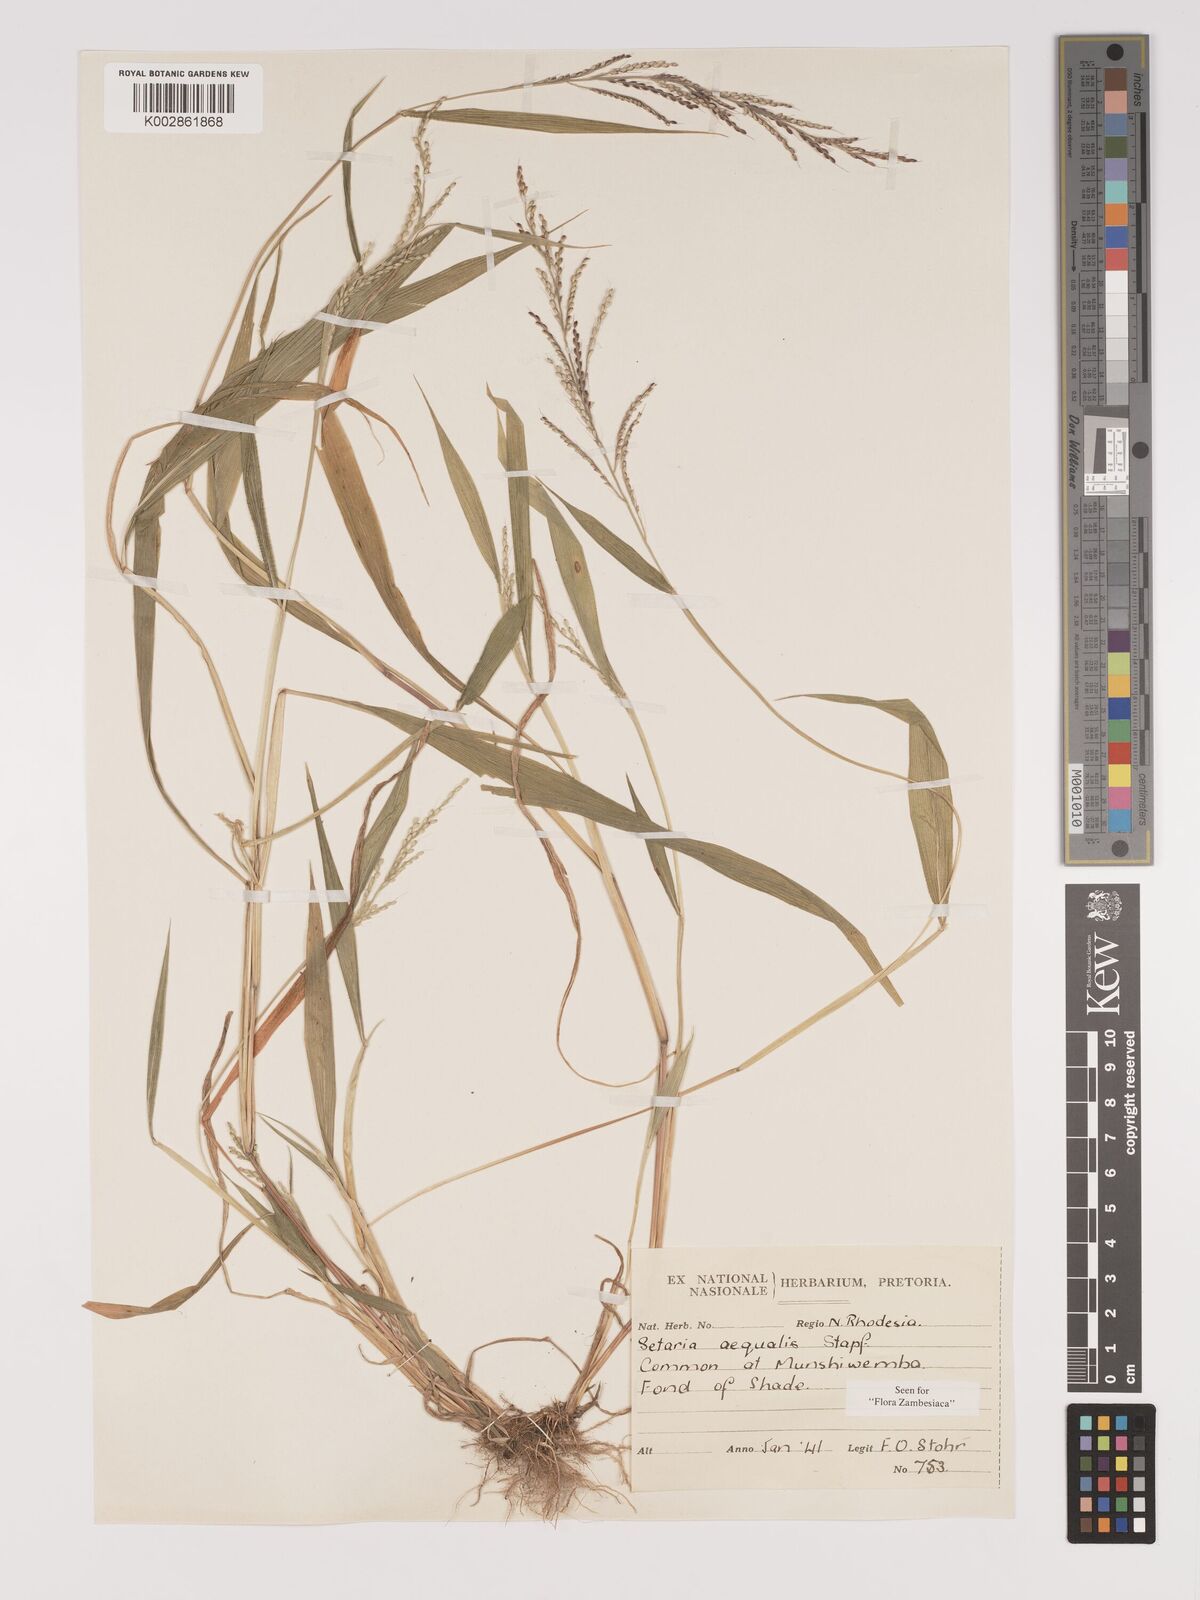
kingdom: Plantae
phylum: Tracheophyta
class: Liliopsida
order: Poales
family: Poaceae
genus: Setaria
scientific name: Setaria homonyma
